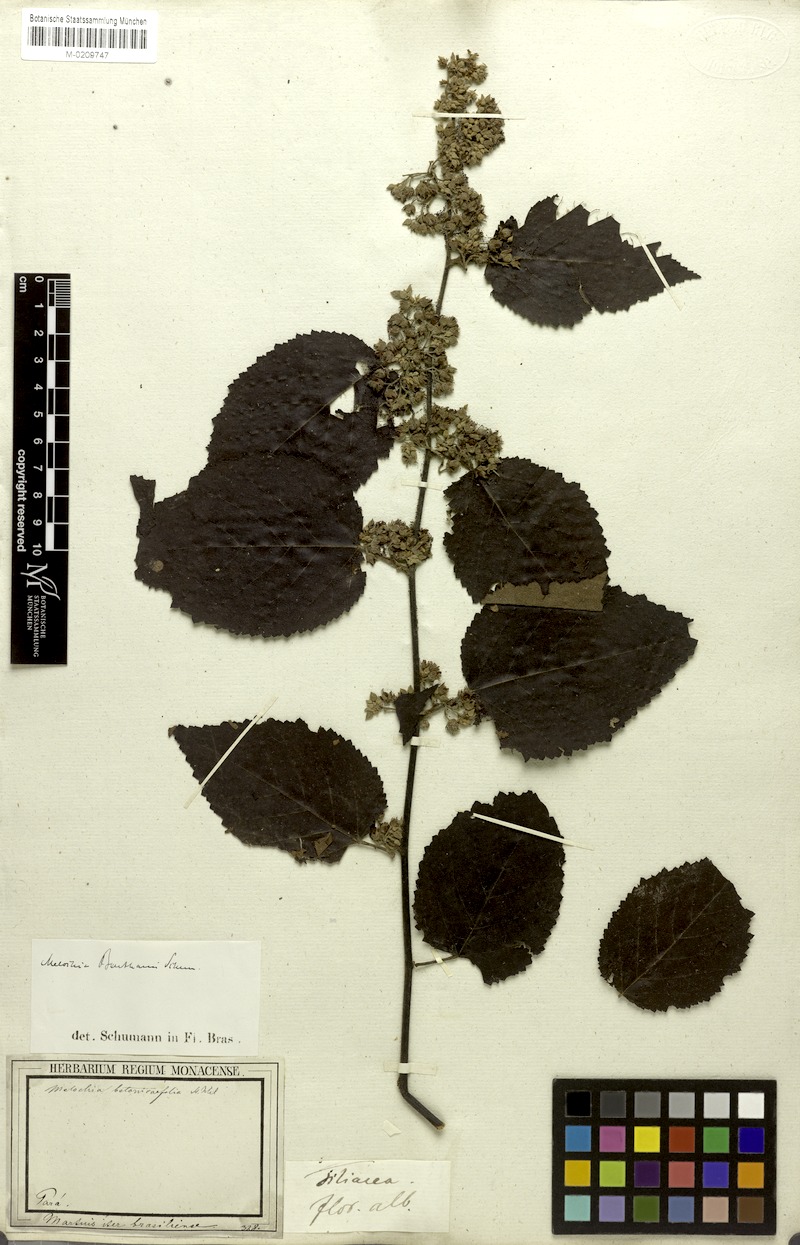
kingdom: Plantae
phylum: Tracheophyta
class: Magnoliopsida
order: Malvales
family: Malvaceae
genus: Melochia
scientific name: Melochia ulmifolia
